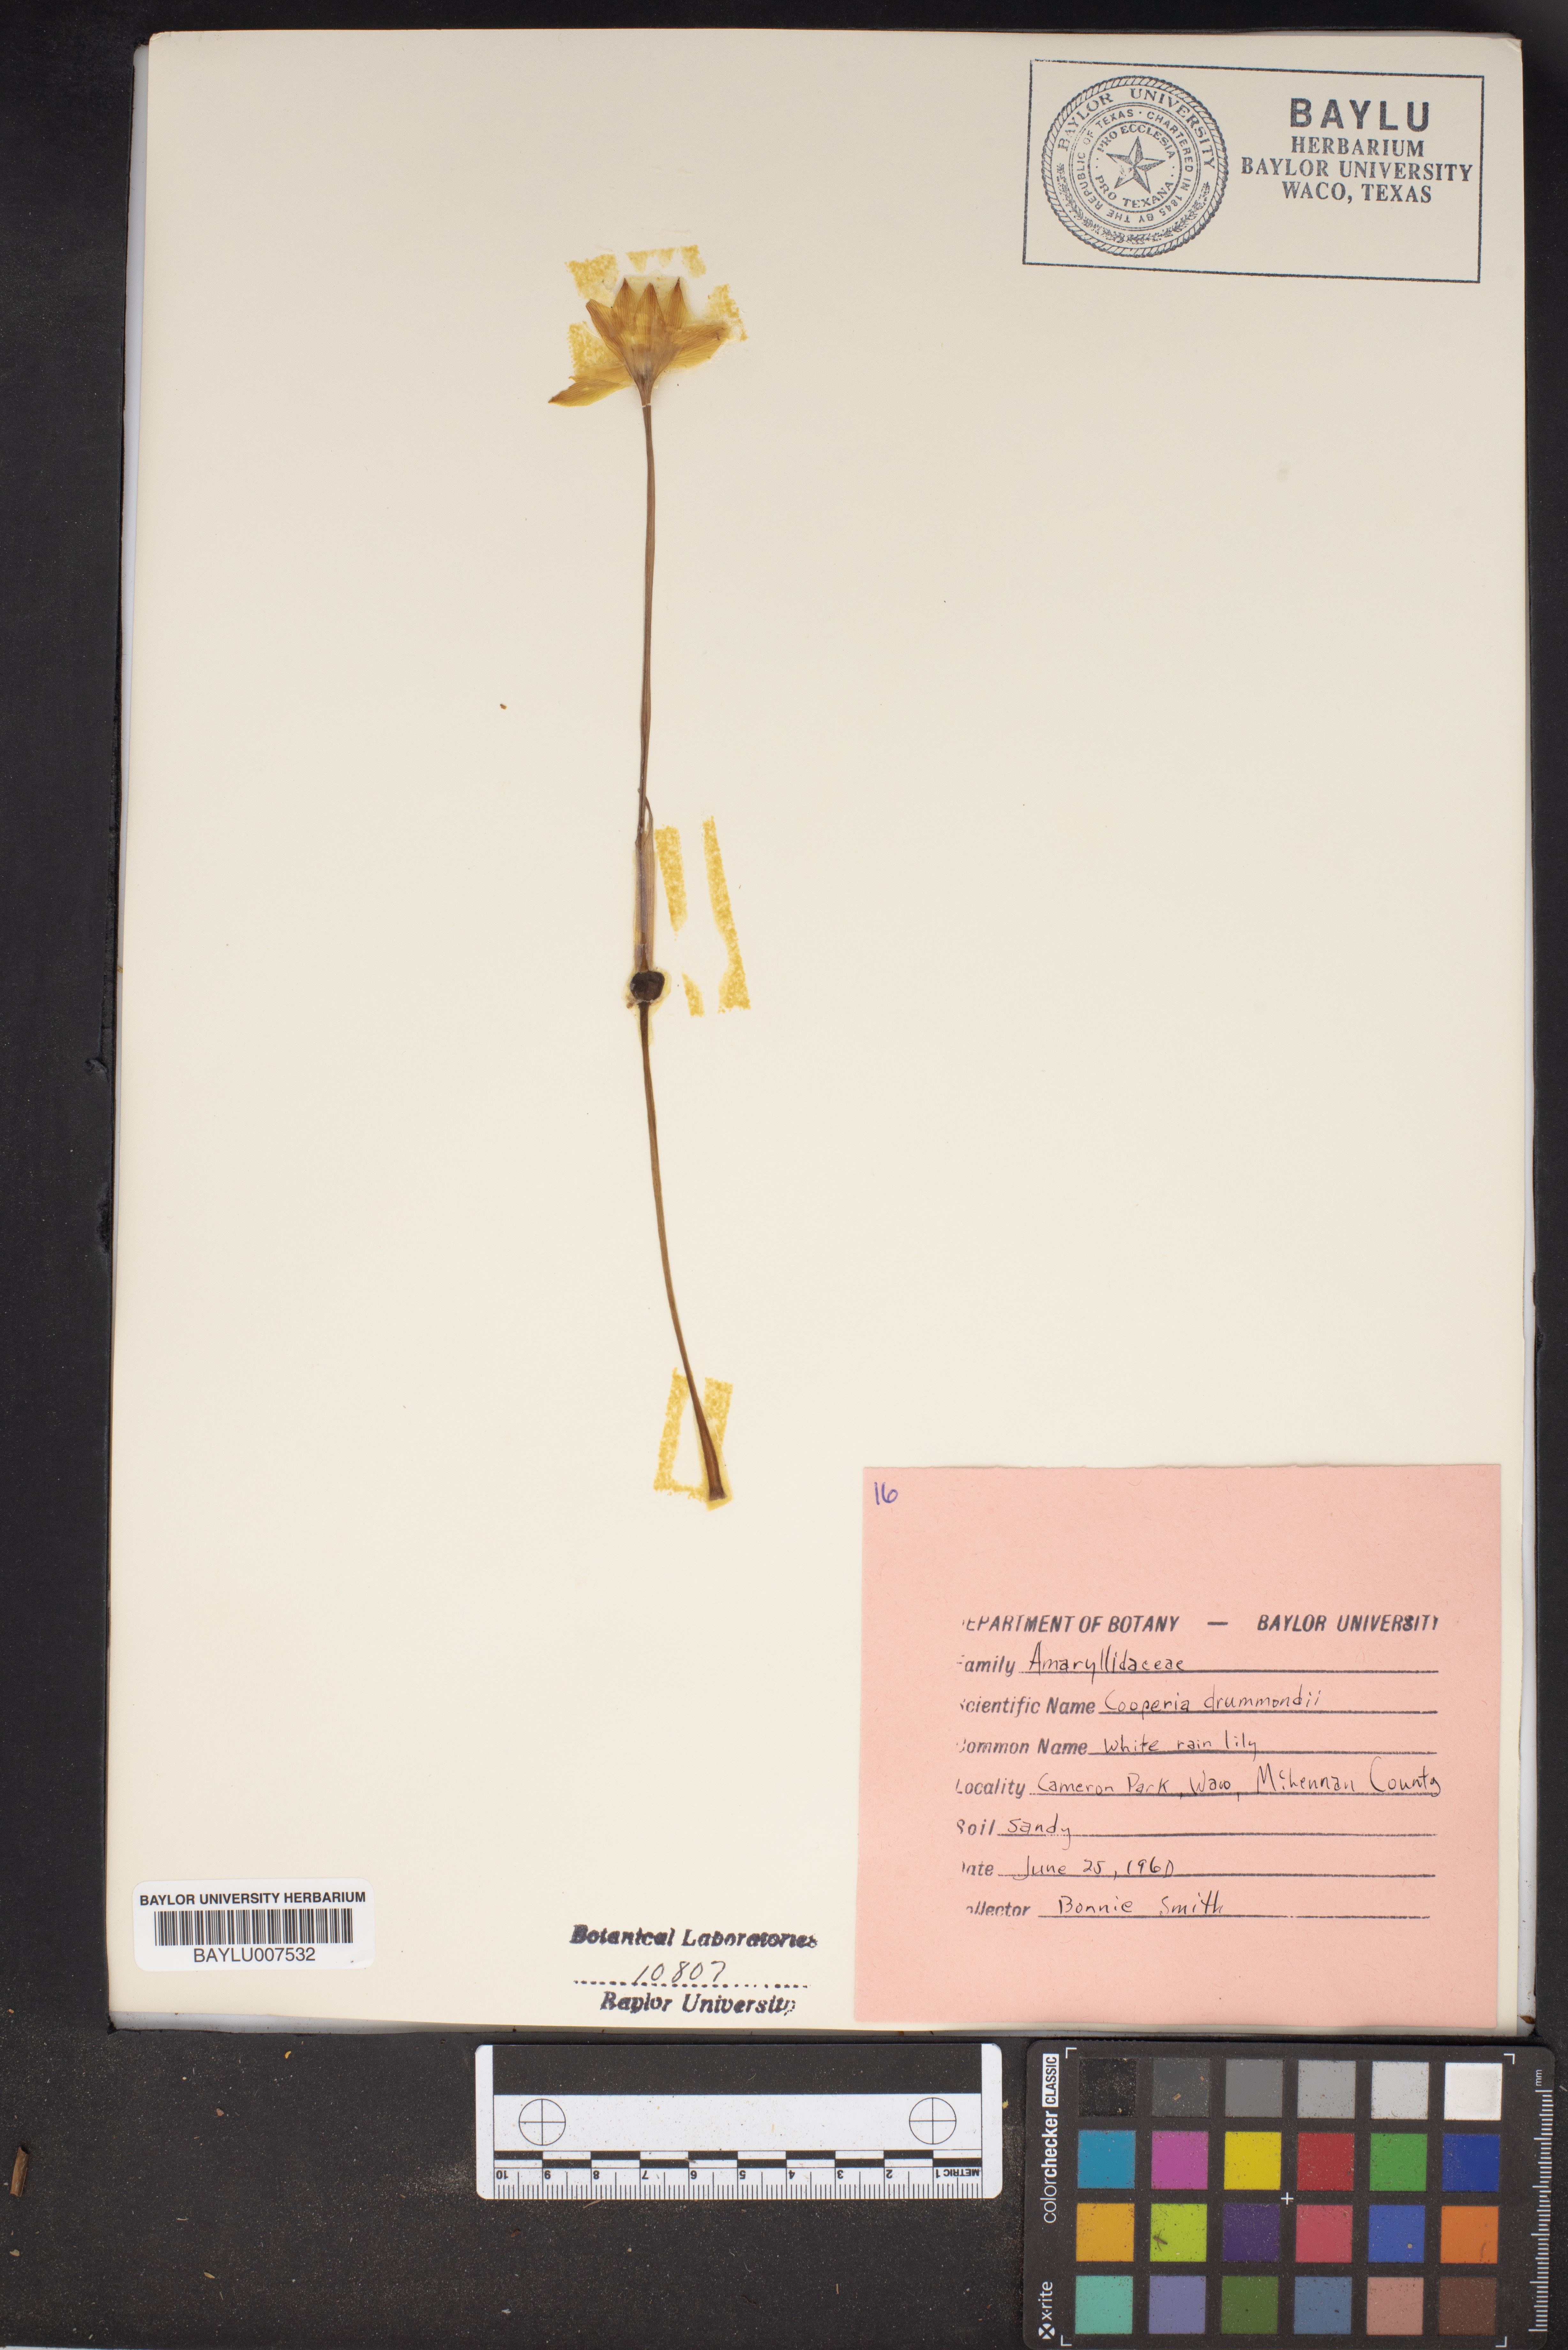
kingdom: Plantae
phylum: Tracheophyta
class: Liliopsida
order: Asparagales
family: Amaryllidaceae
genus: Zephyranthes
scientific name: Zephyranthes chlorosolen
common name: Evening rain-lily
